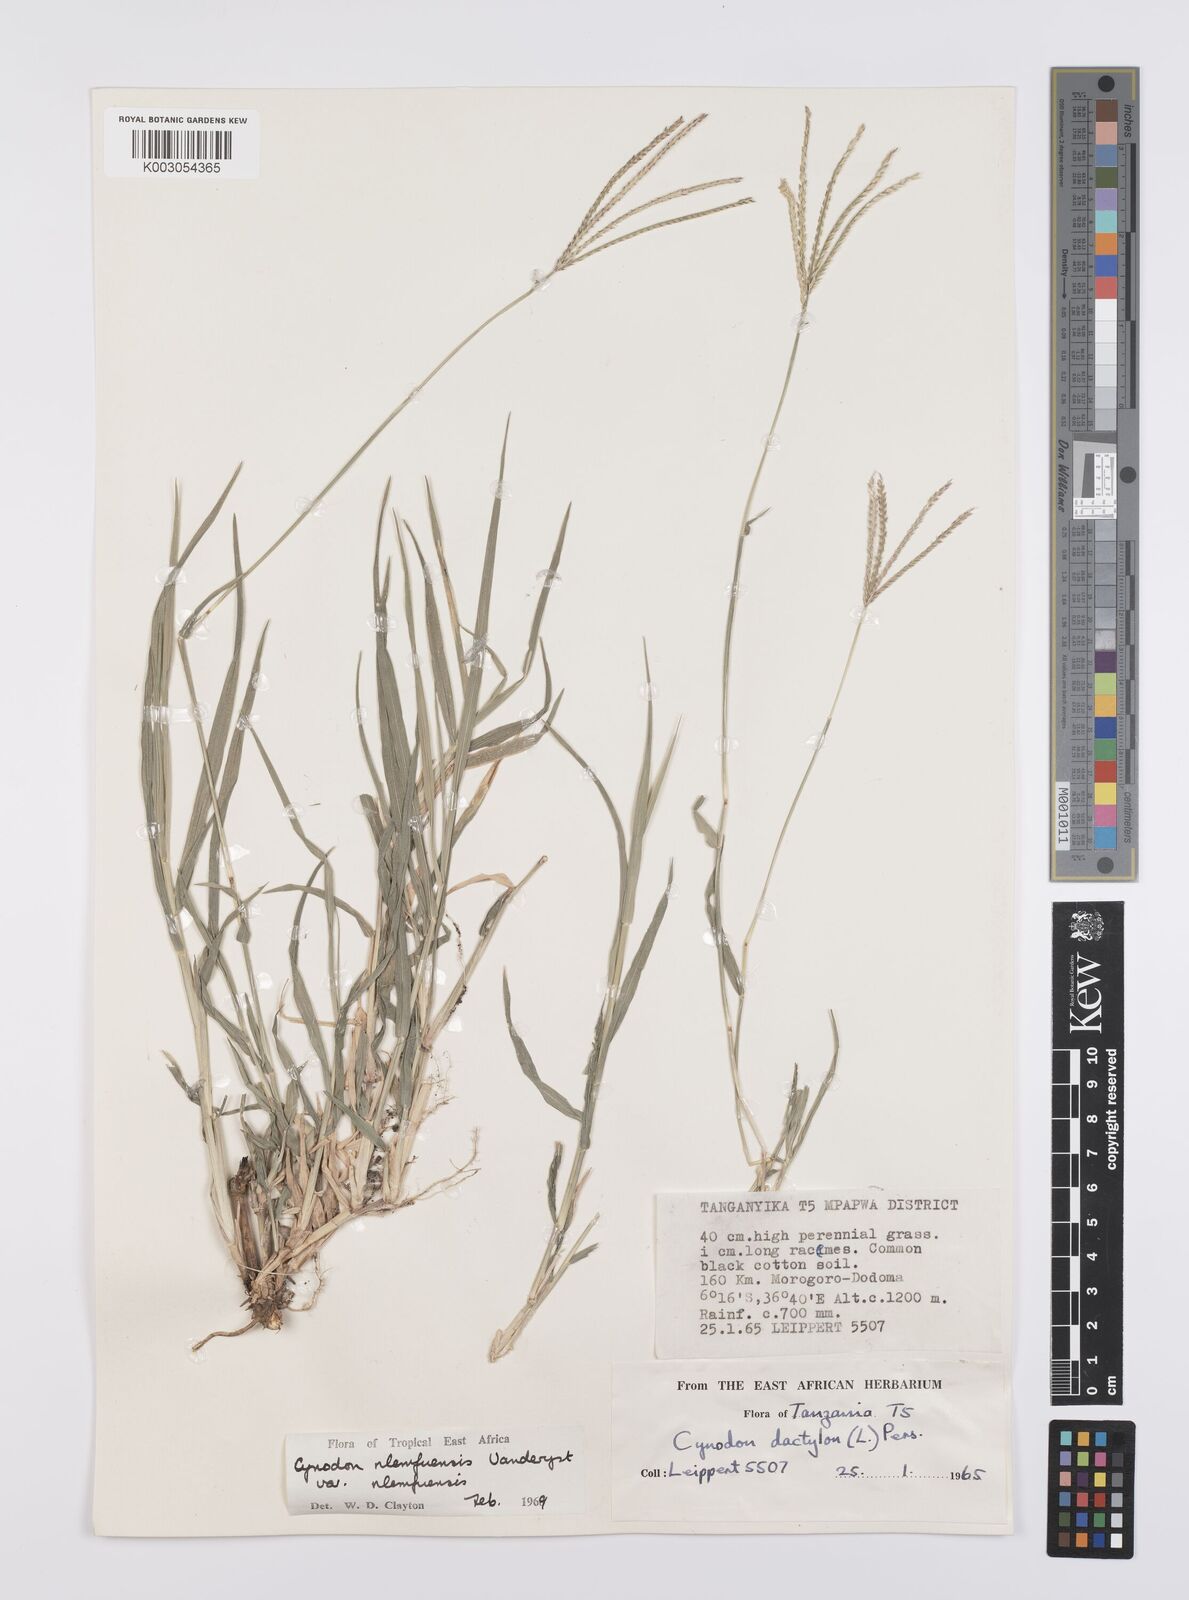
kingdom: Plantae
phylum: Tracheophyta
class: Liliopsida
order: Poales
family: Poaceae
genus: Cynodon
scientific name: Cynodon nlemfuensis
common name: African bermudagrass
